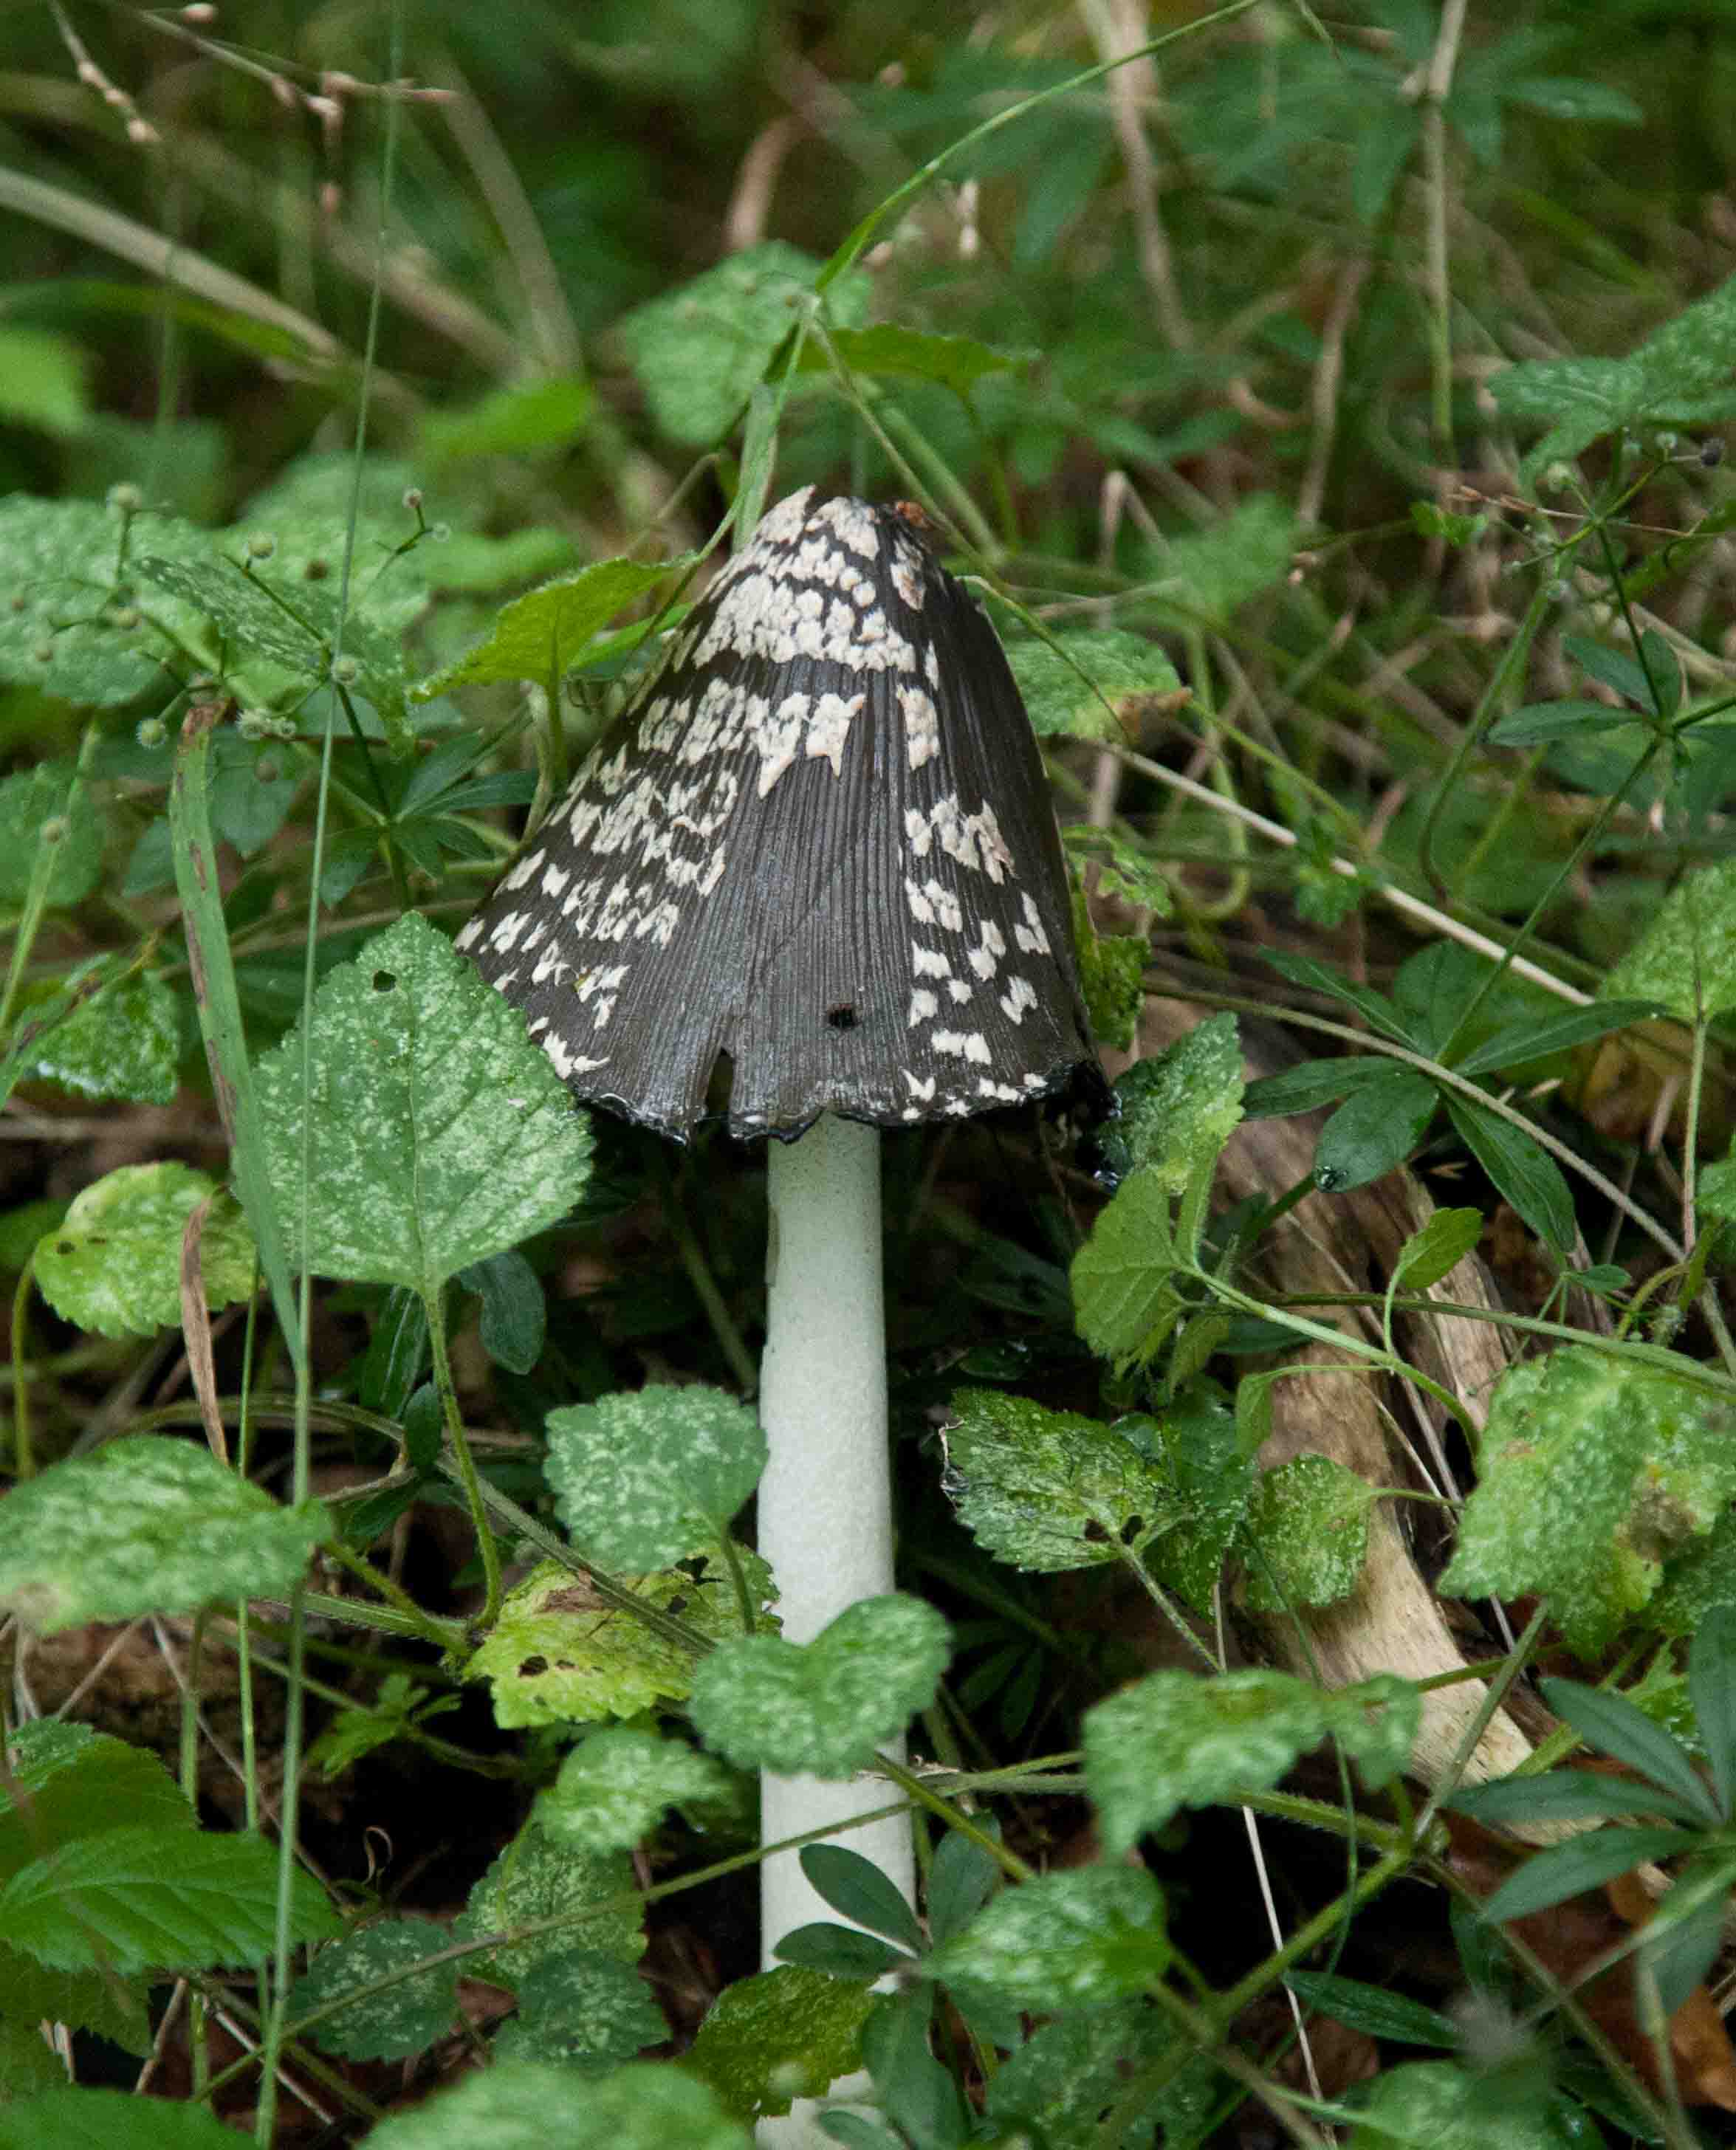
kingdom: Fungi
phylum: Basidiomycota
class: Agaricomycetes
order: Agaricales
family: Psathyrellaceae
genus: Coprinopsis
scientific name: Coprinopsis picacea
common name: skade-blækhat
